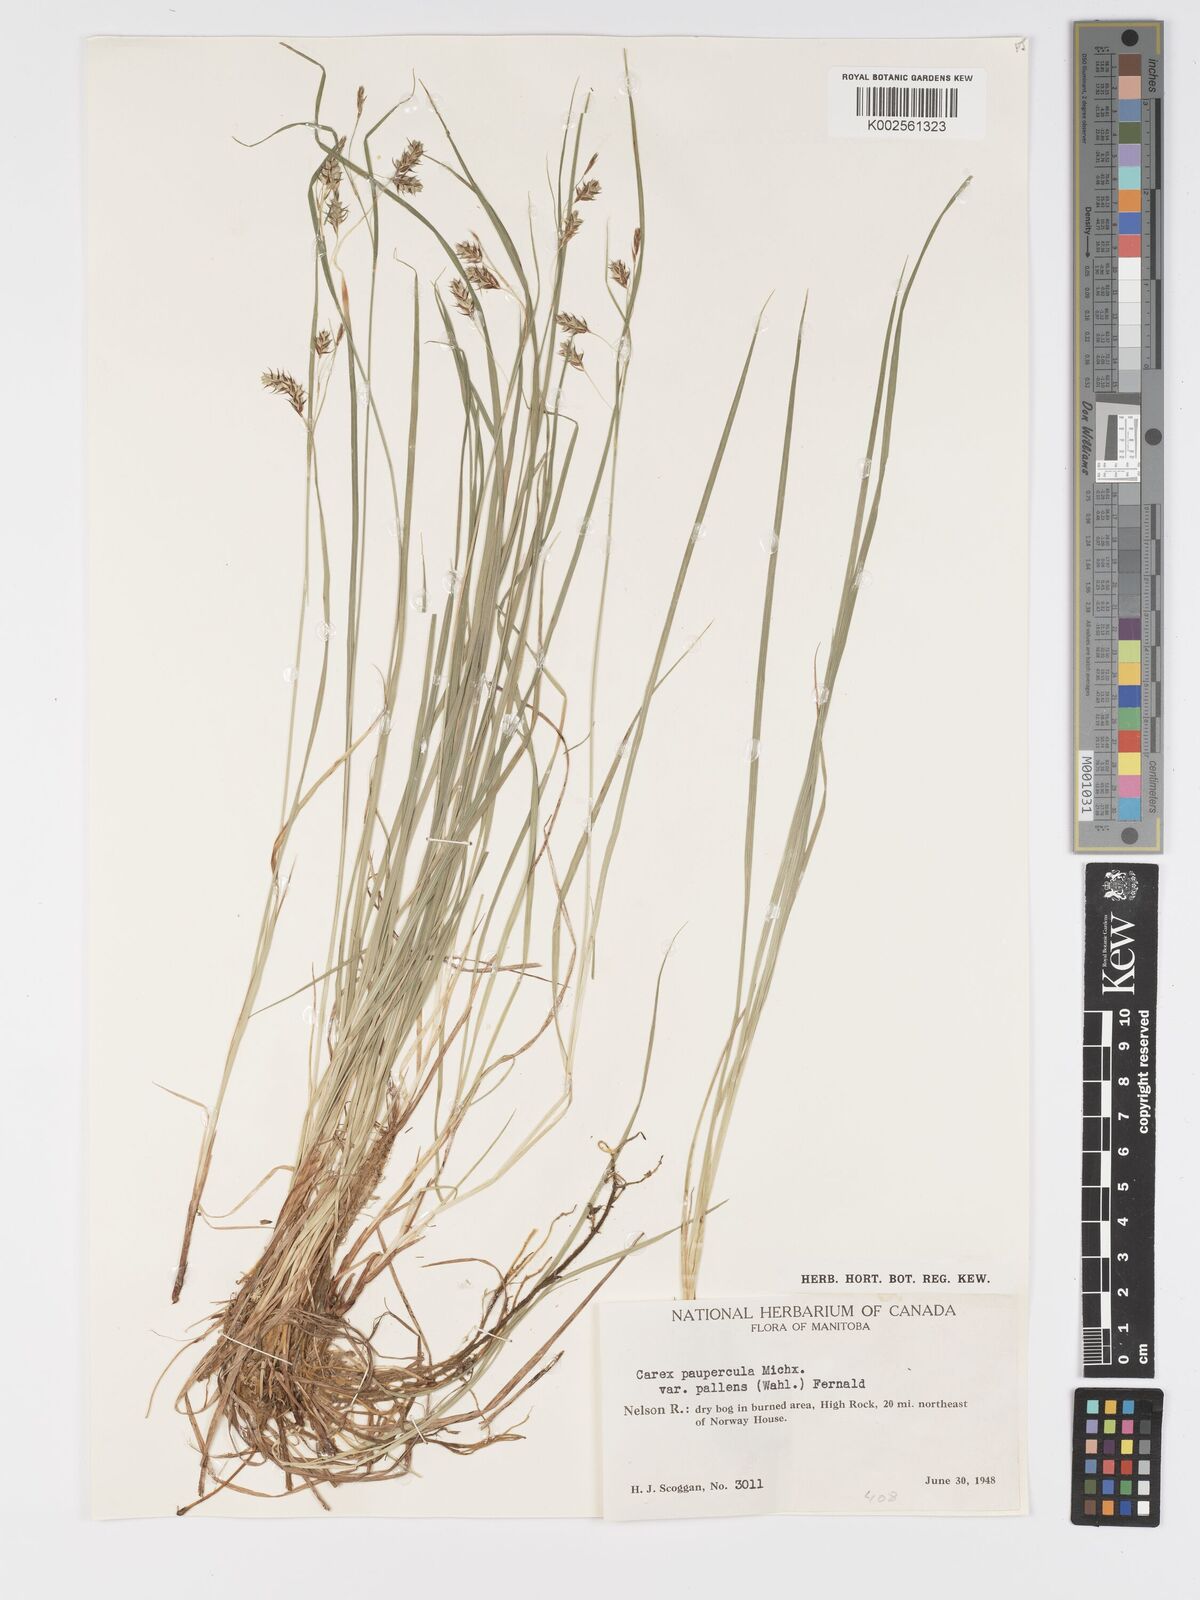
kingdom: Plantae
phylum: Tracheophyta
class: Liliopsida
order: Poales
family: Cyperaceae
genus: Carex
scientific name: Carex magellanica
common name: Bog sedge
